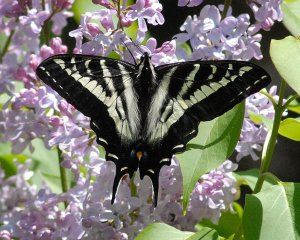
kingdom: Animalia
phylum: Arthropoda
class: Insecta
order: Lepidoptera
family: Papilionidae
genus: Pterourus
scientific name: Pterourus eurymedon
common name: Pale Swallowtail
